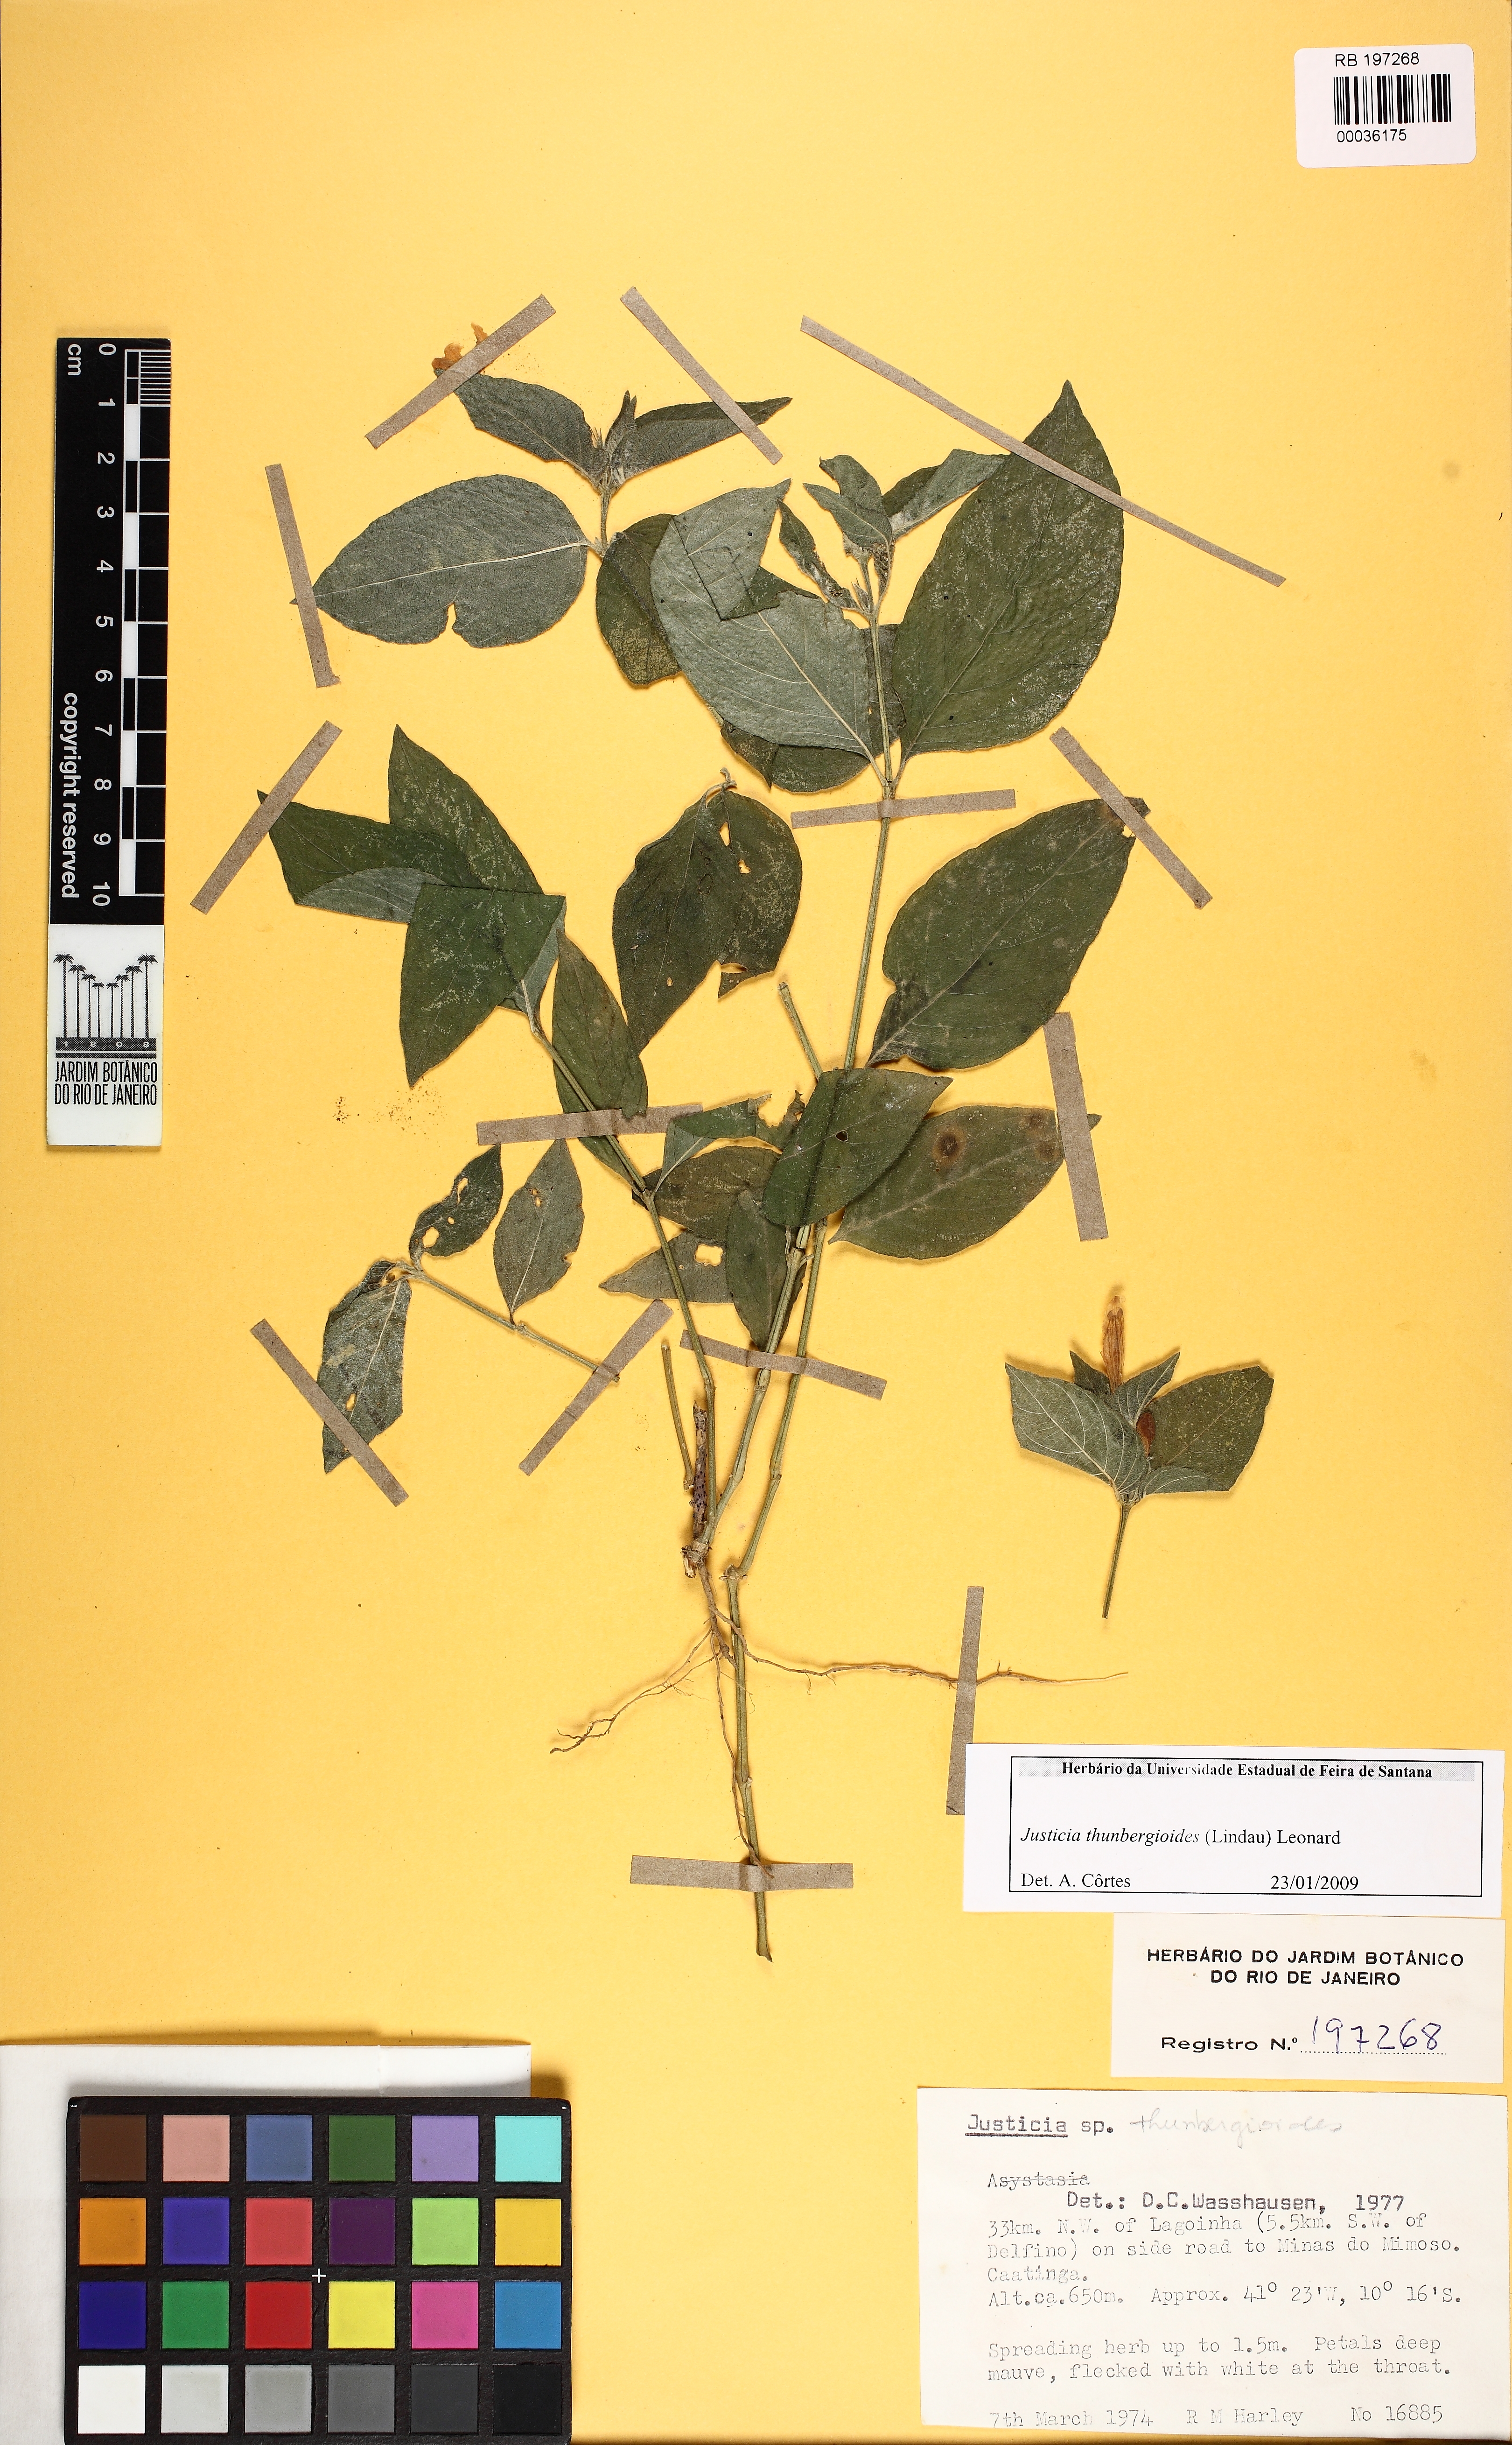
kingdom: Plantae
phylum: Tracheophyta
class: Magnoliopsida
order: Lamiales
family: Acanthaceae
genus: Justicia
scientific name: Justicia thunbergioides
